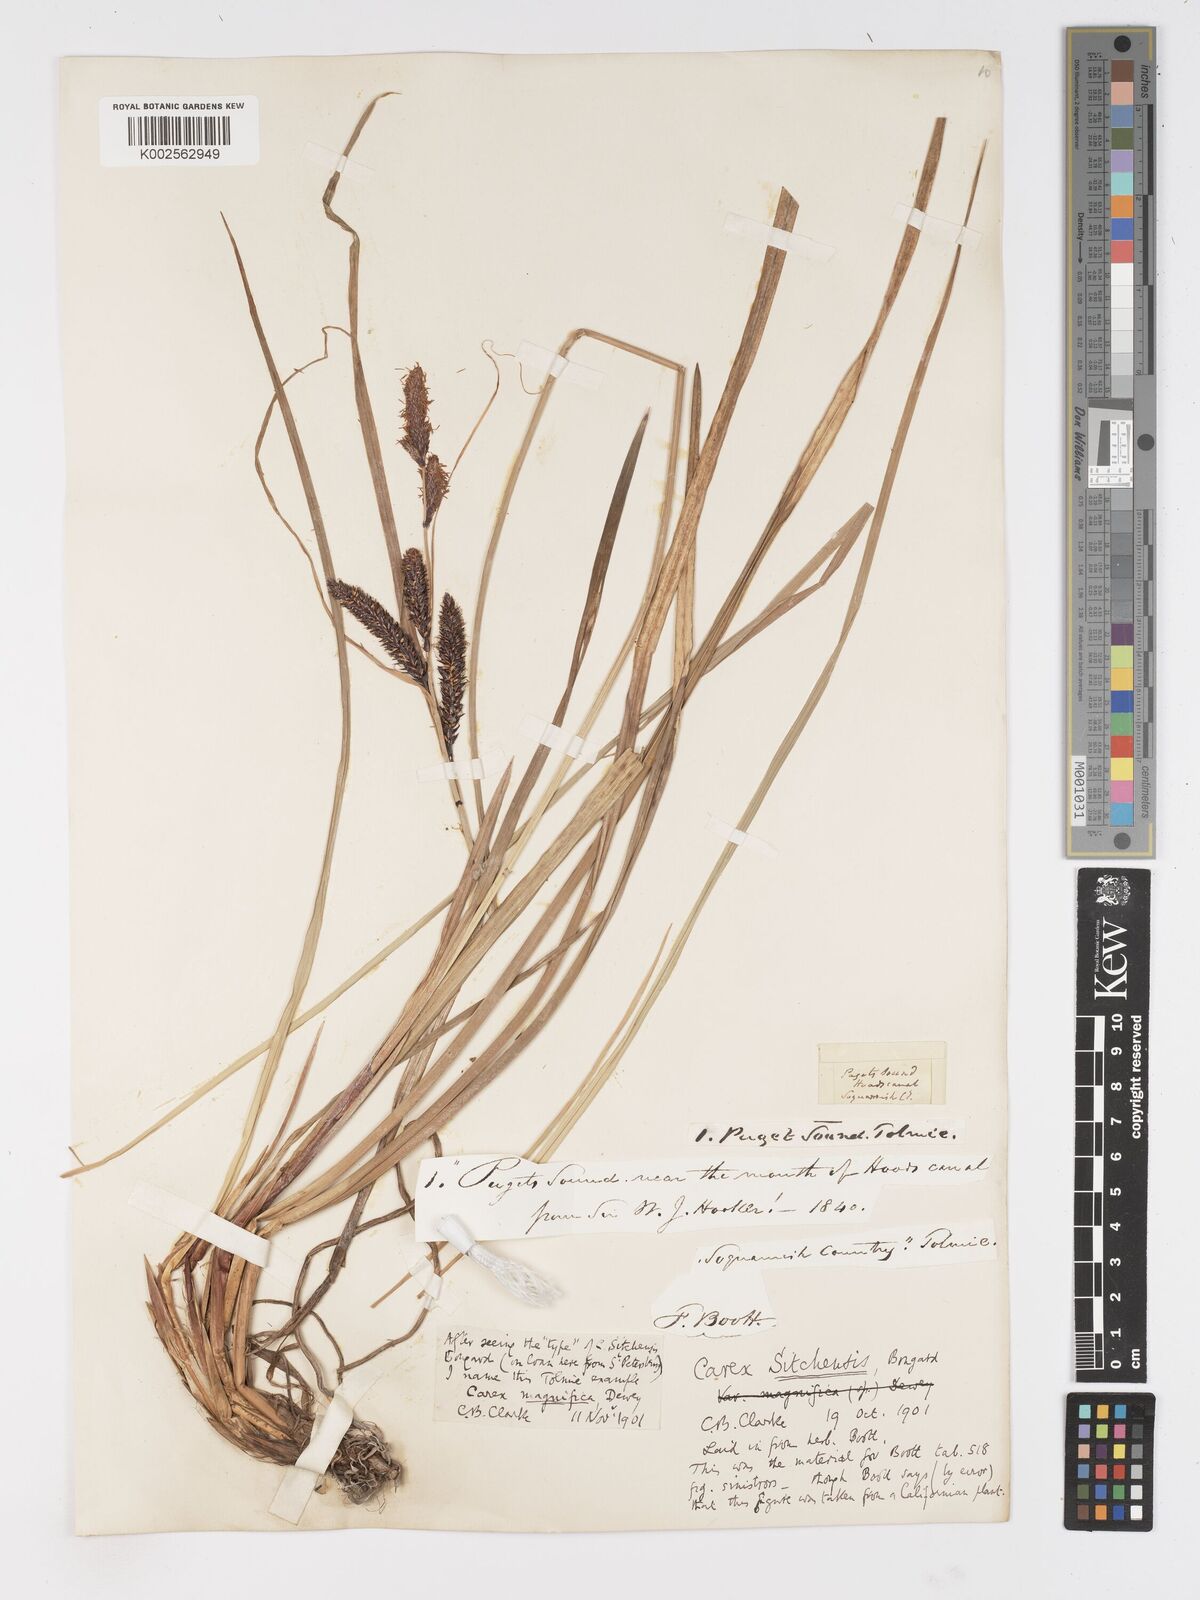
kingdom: Plantae
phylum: Tracheophyta
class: Liliopsida
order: Poales
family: Cyperaceae
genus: Carex
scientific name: Carex obnupta
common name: Slough sedge
